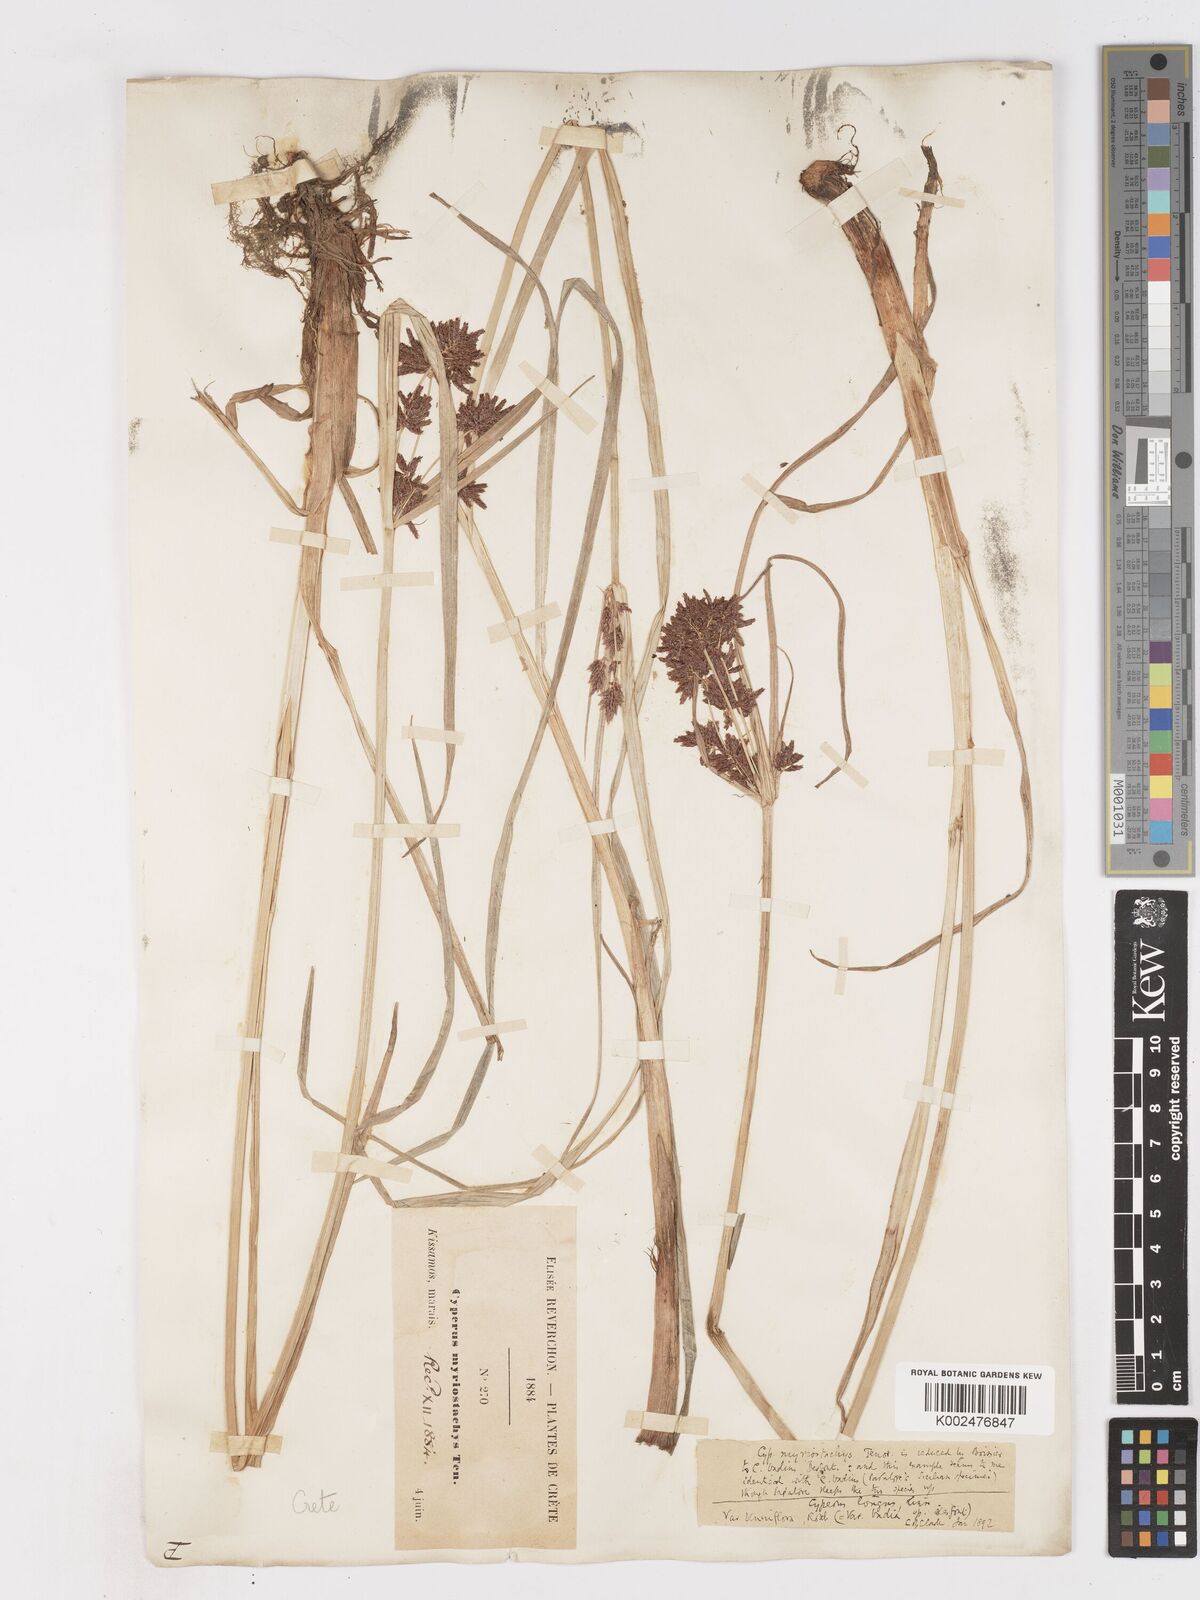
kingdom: Plantae
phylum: Tracheophyta
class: Liliopsida
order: Poales
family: Cyperaceae
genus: Cyperus
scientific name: Cyperus longus
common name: Galingale
